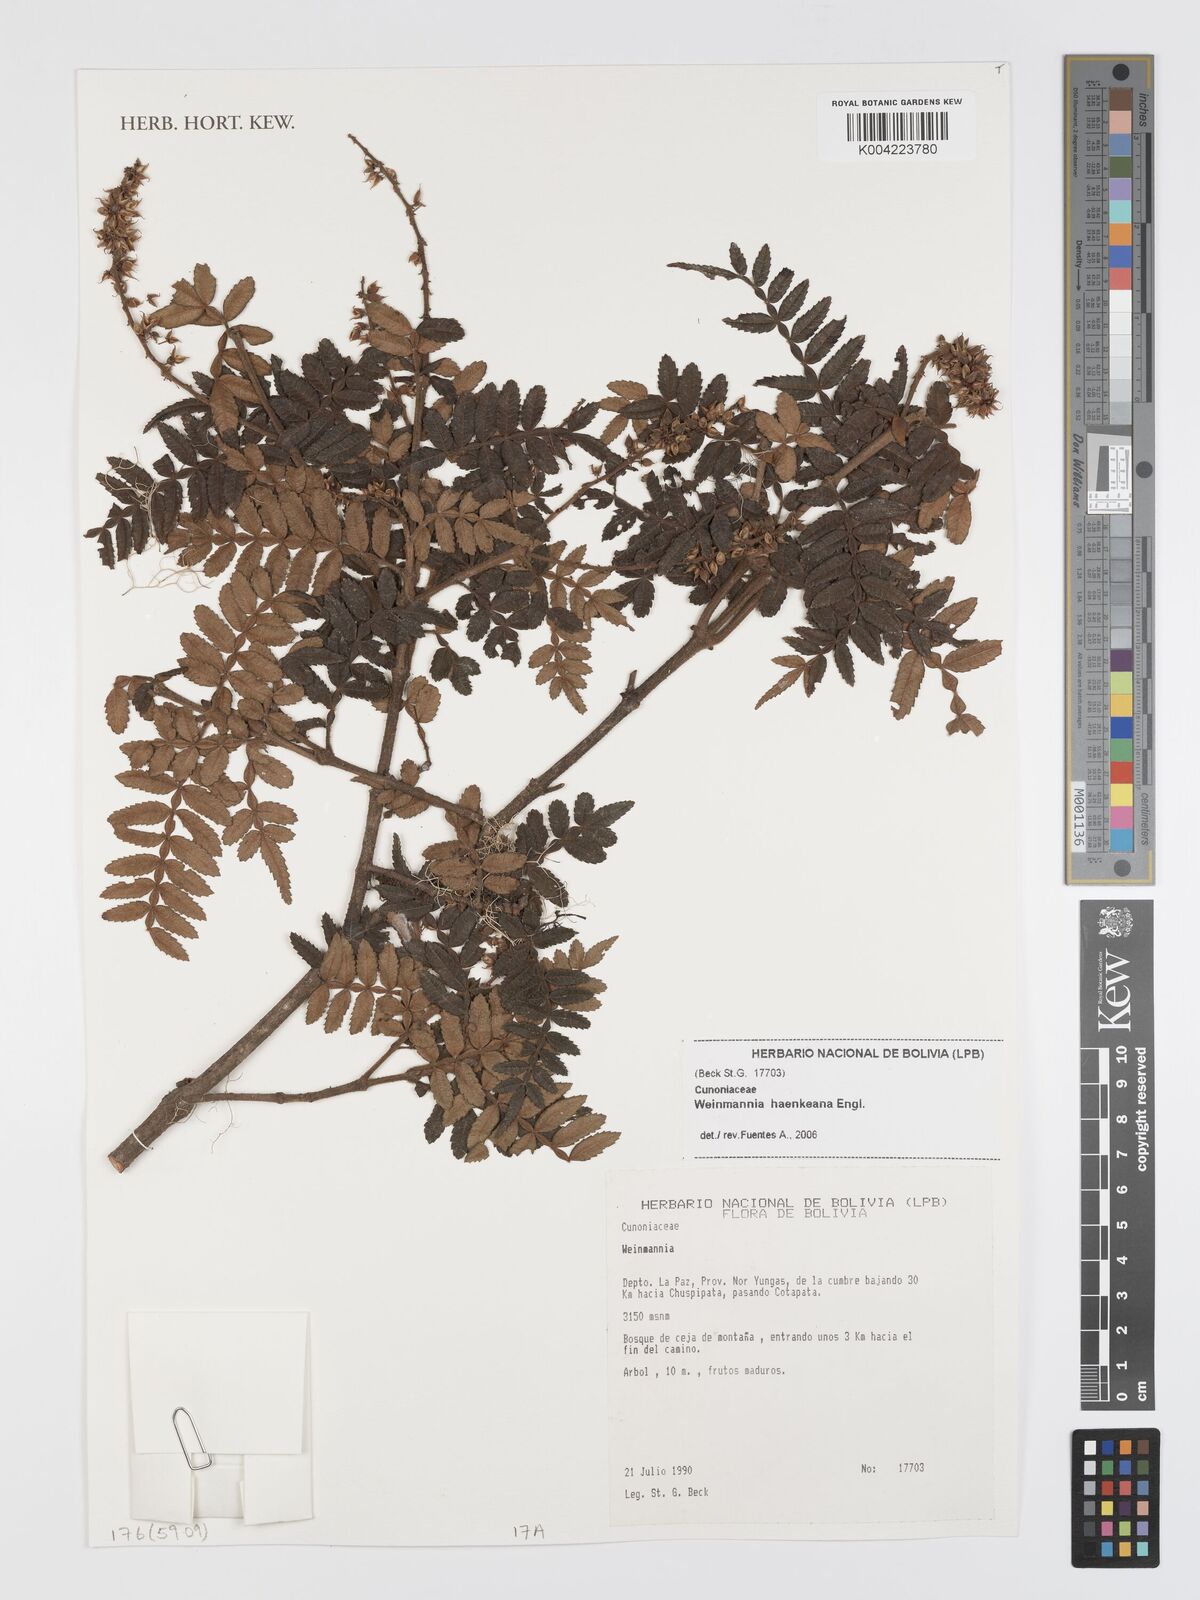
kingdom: Plantae
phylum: Tracheophyta
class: Magnoliopsida
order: Oxalidales
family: Cunoniaceae
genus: Weinmannia
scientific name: Weinmannia haenkeana
